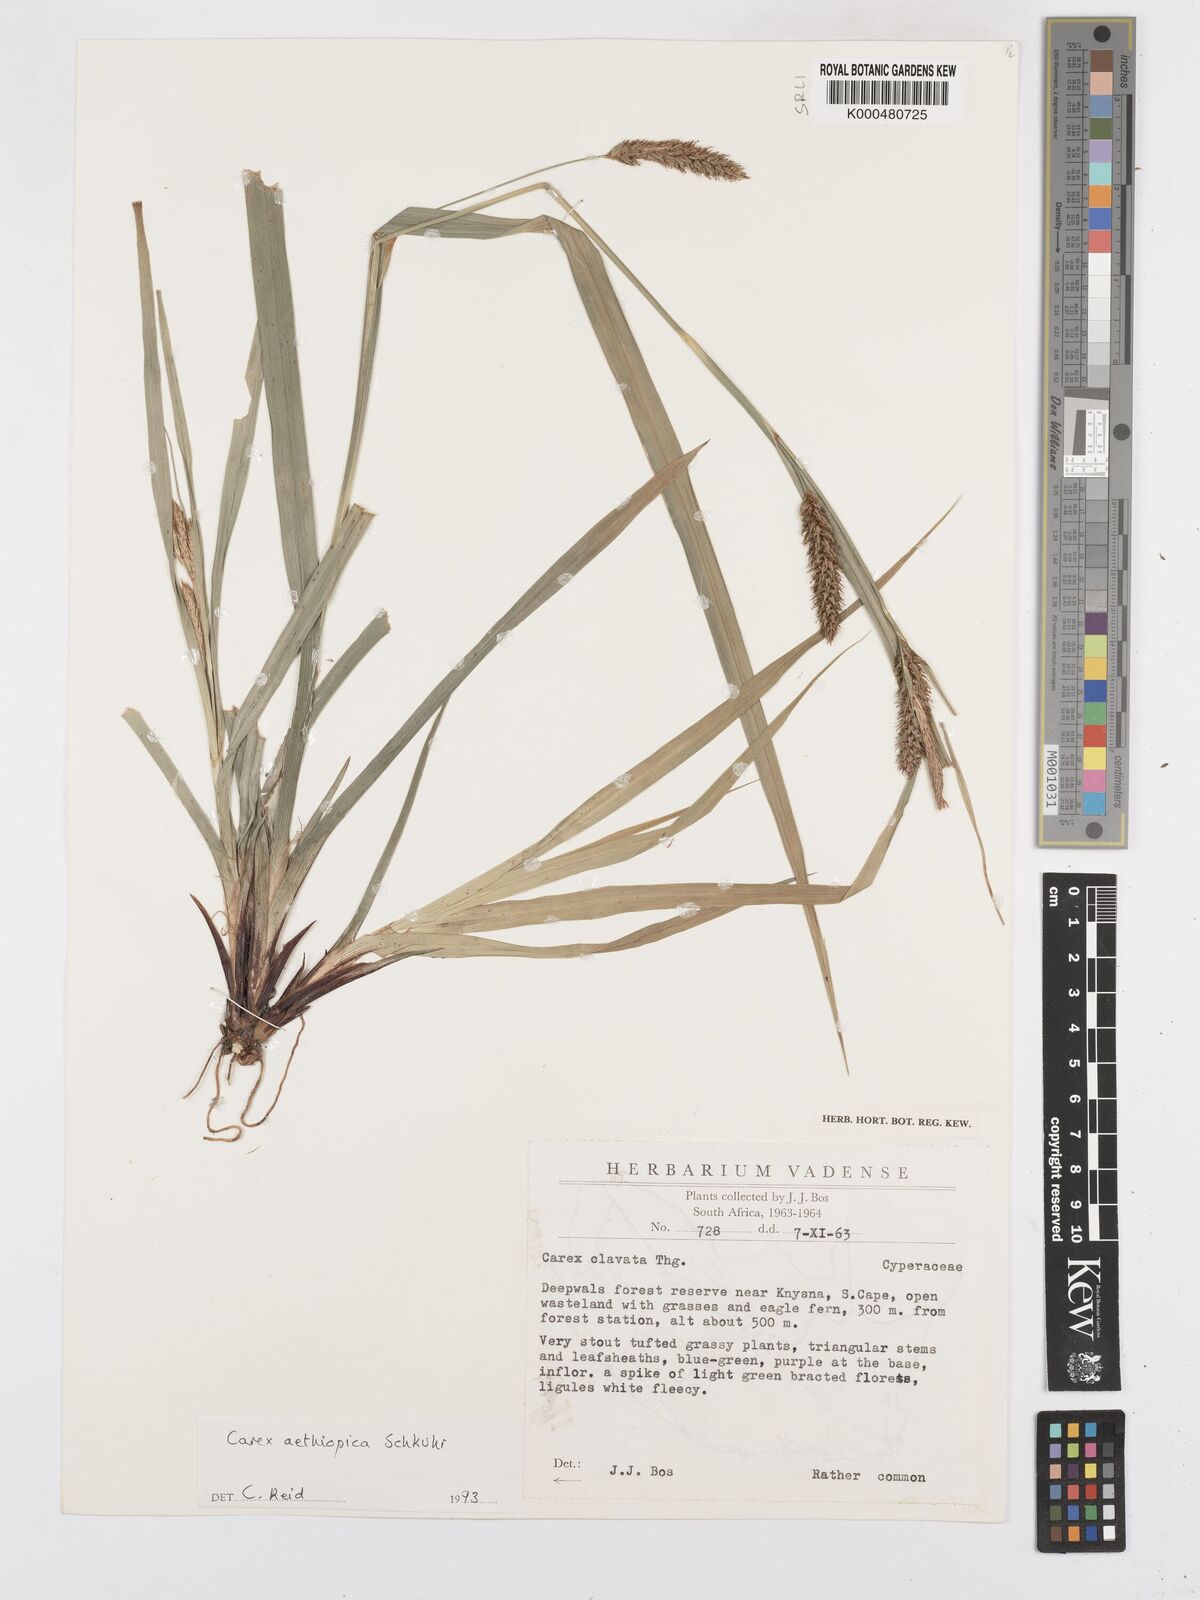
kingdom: Plantae
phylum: Tracheophyta
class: Liliopsida
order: Poales
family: Cyperaceae
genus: Carex
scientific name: Carex aethiopica
